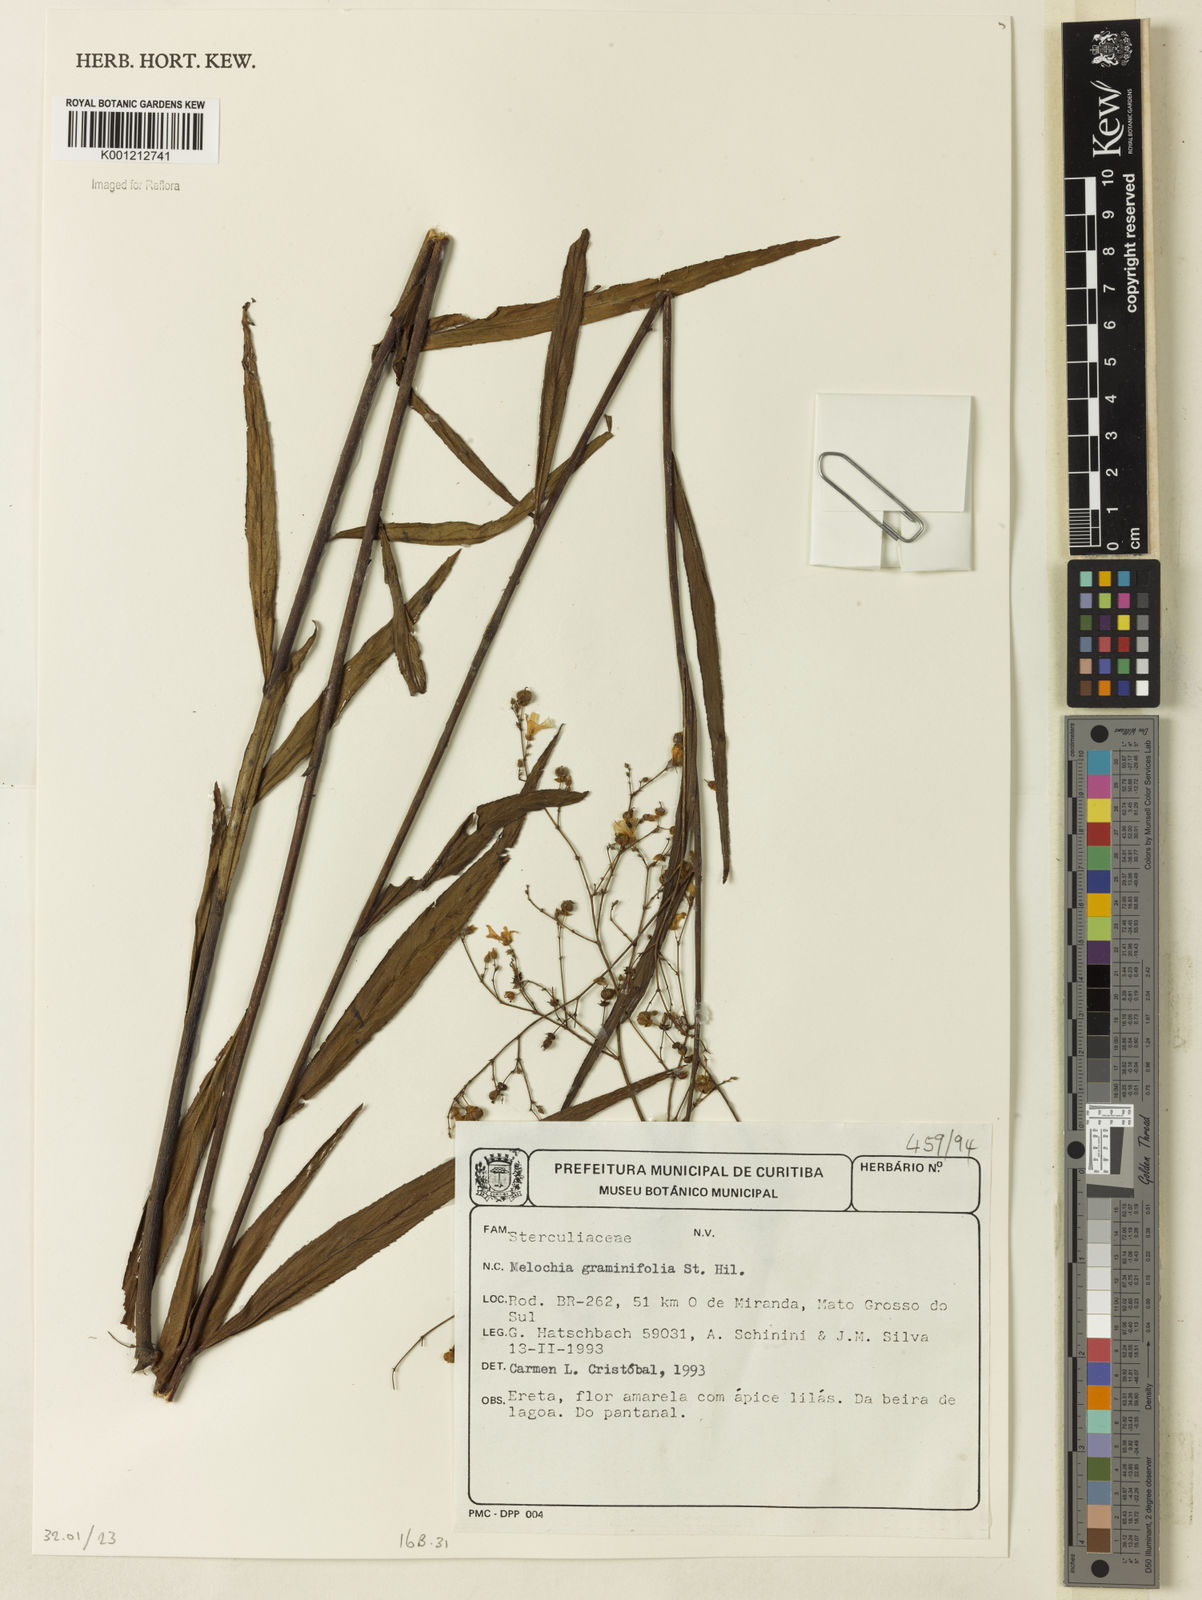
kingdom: Plantae
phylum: Tracheophyta
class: Magnoliopsida
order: Malvales
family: Malvaceae
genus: Melochia
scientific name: Melochia graminifolia
